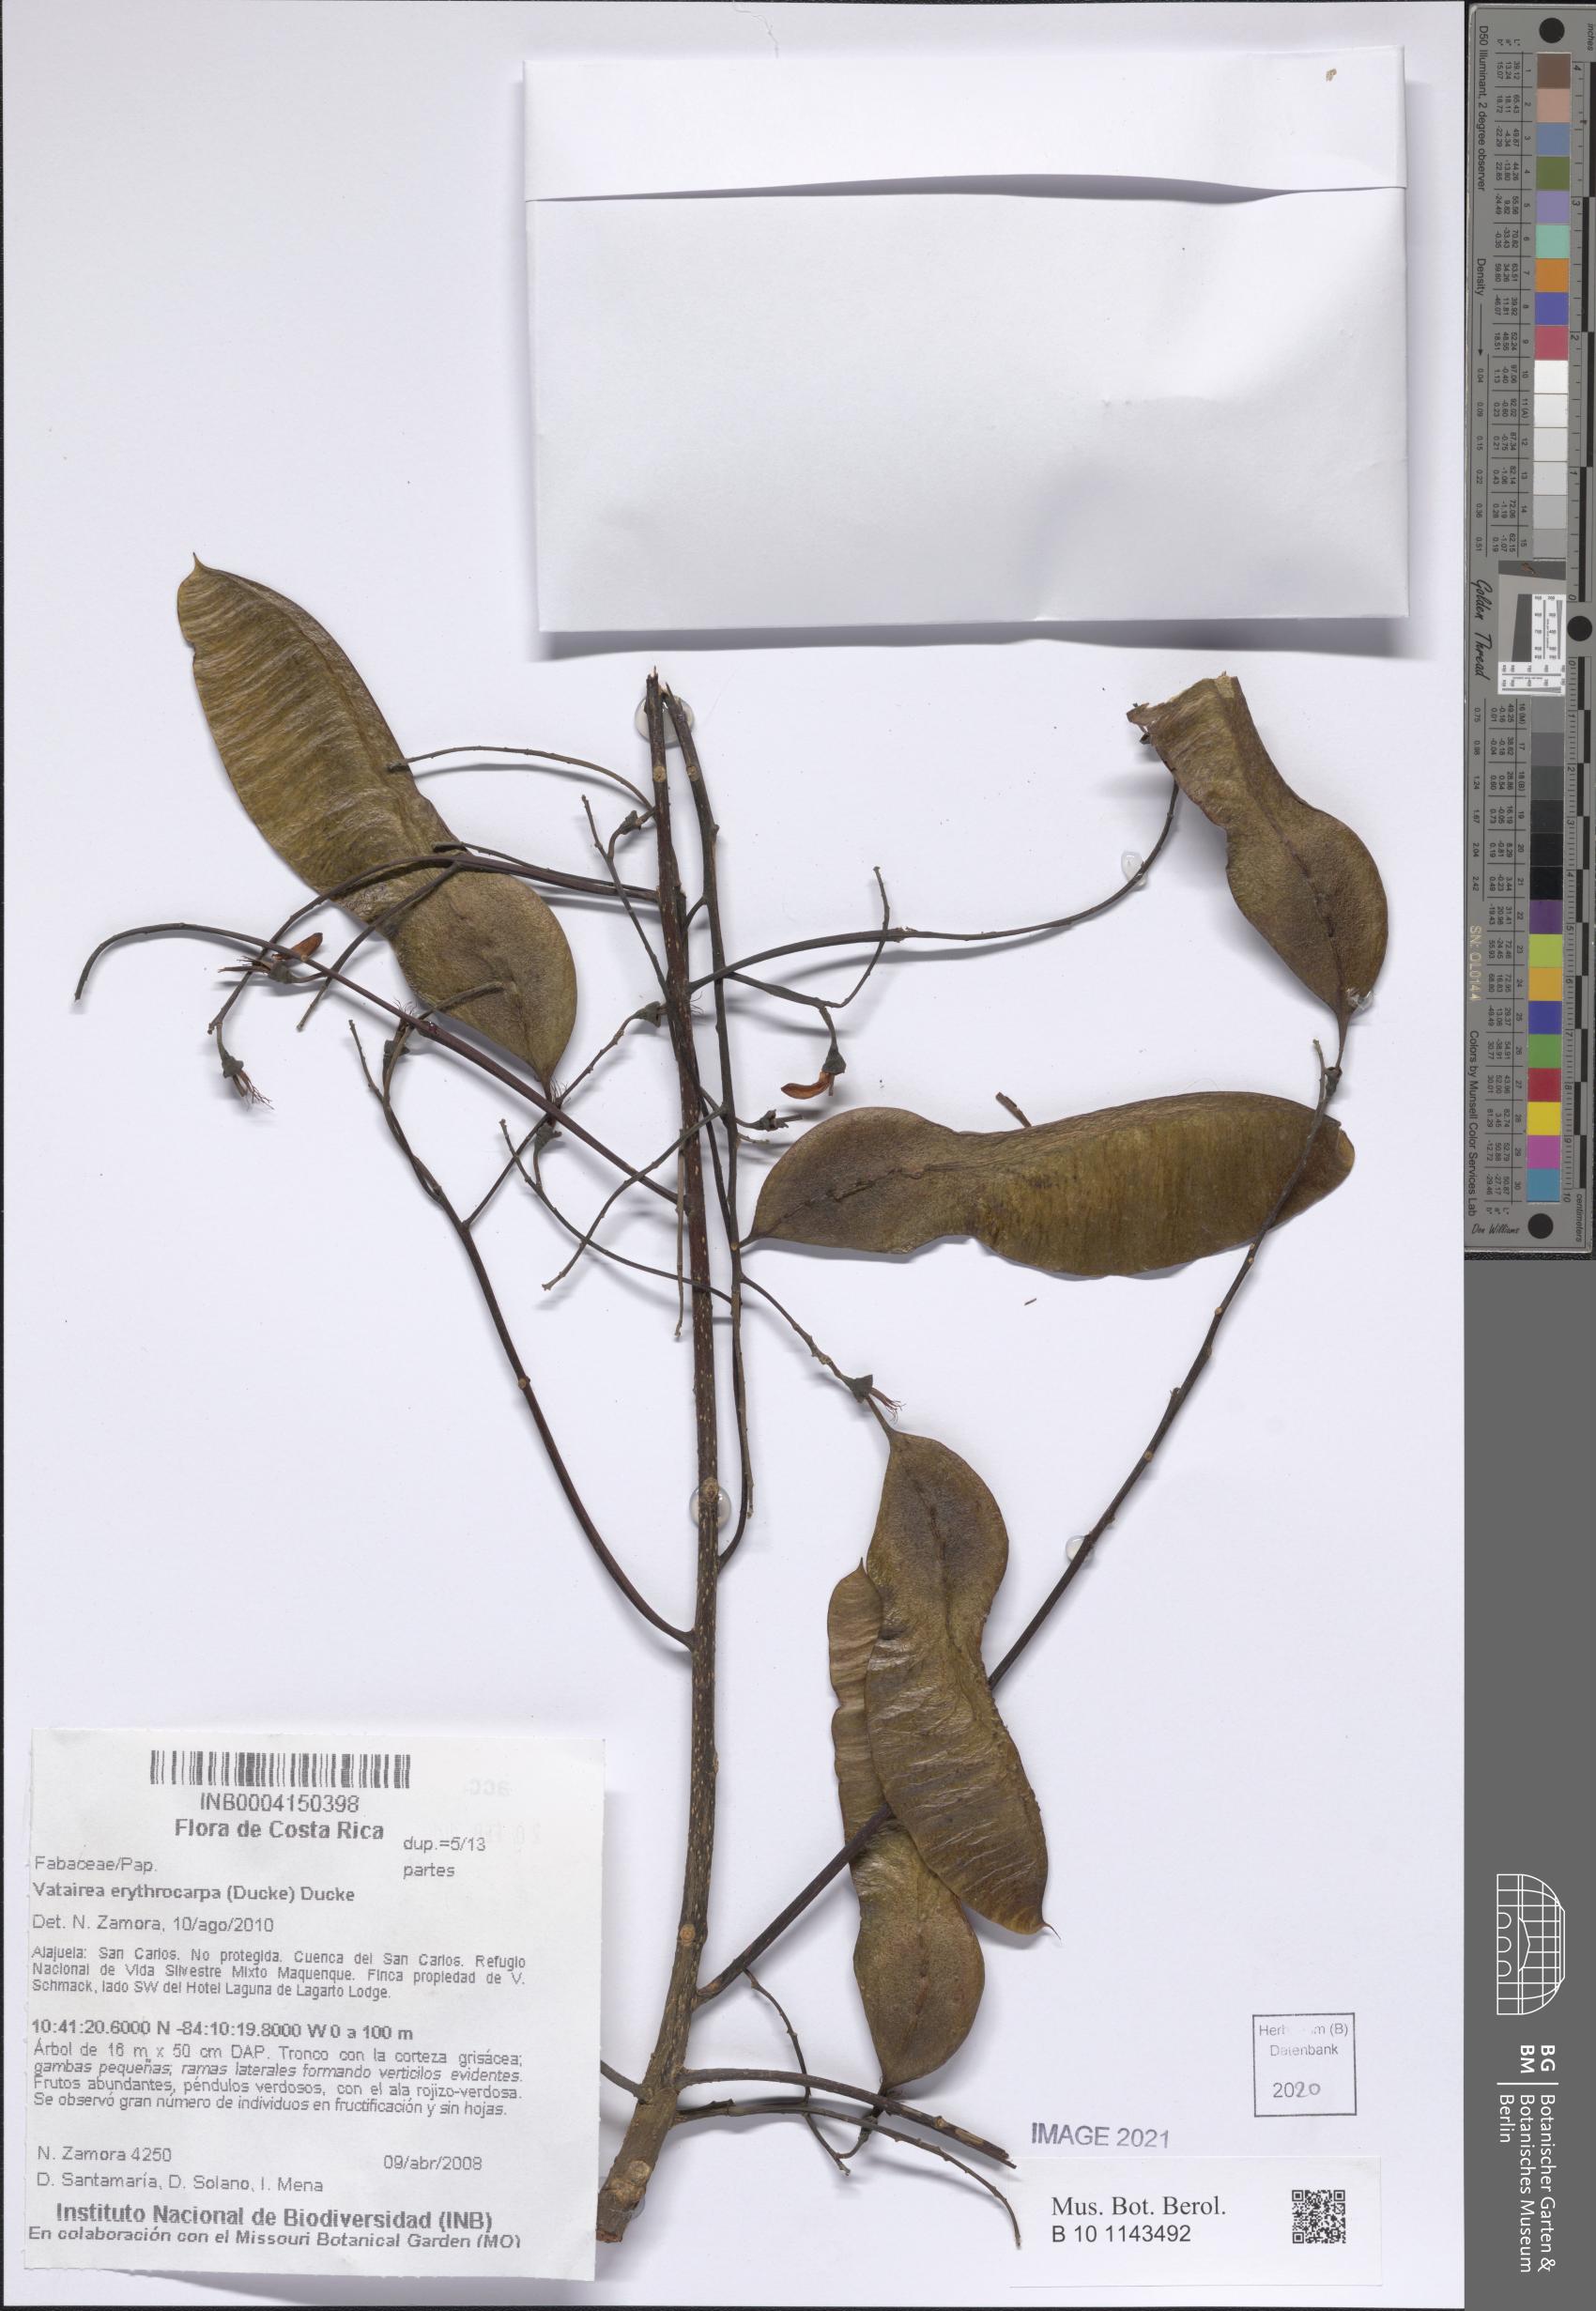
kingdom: Plantae
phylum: Tracheophyta
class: Magnoliopsida
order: Fabales
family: Fabaceae
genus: Vatairea
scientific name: Vatairea erythrocarpa
